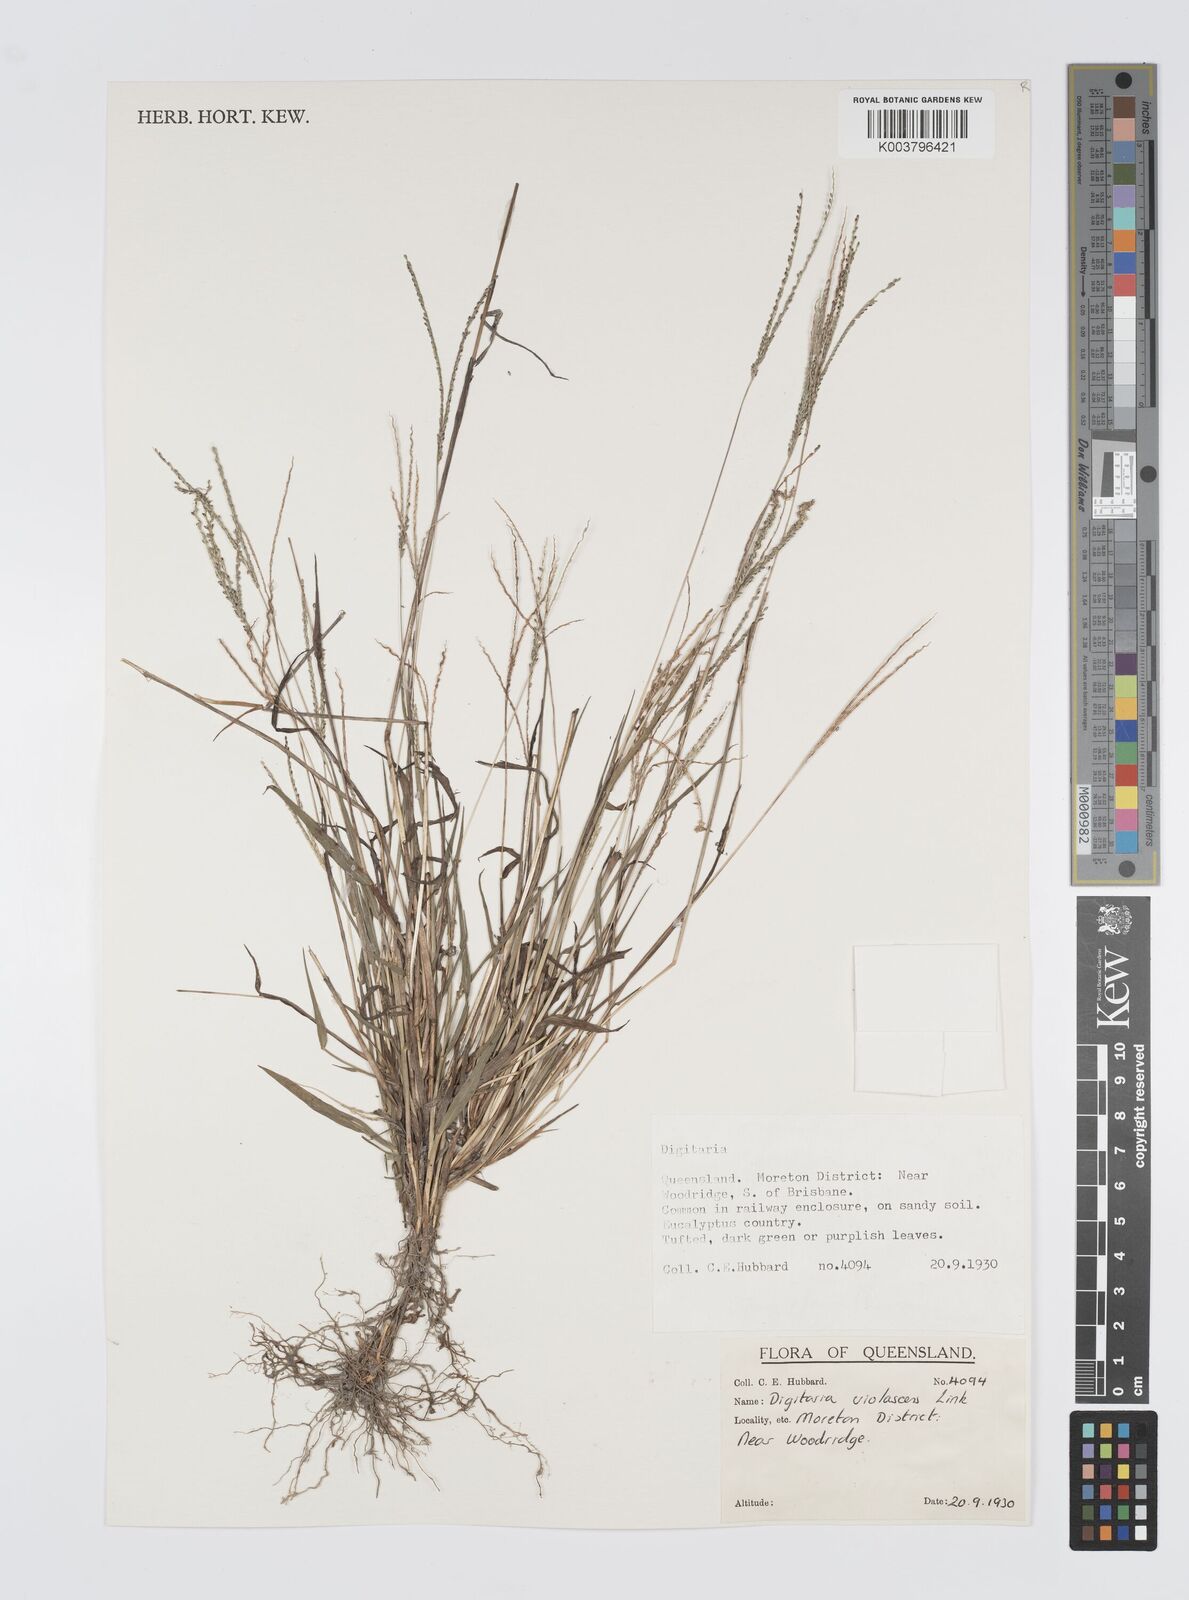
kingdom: Plantae
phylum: Tracheophyta
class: Liliopsida
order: Poales
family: Poaceae
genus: Digitaria
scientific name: Digitaria violascens
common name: Violet crabgrass
